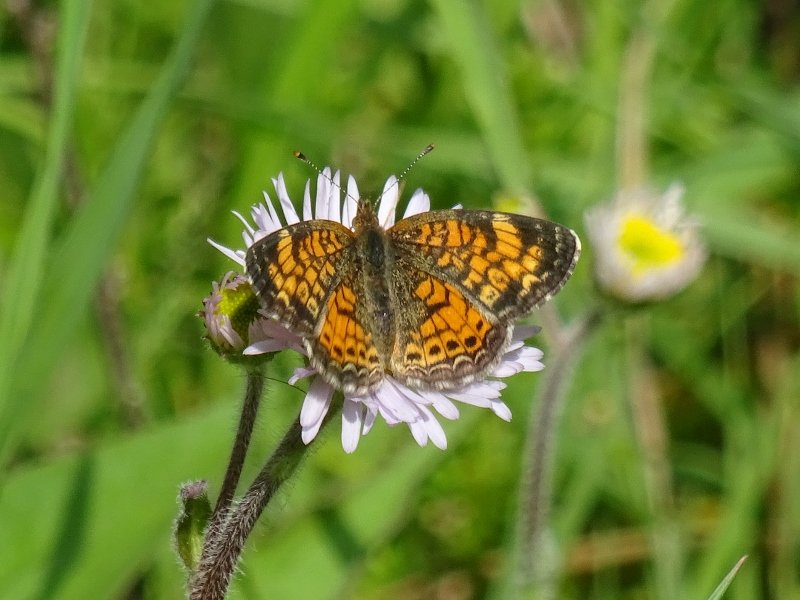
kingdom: Animalia
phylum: Arthropoda
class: Insecta
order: Lepidoptera
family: Nymphalidae
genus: Phyciodes
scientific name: Phyciodes tharos
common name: Pearl Crescent
